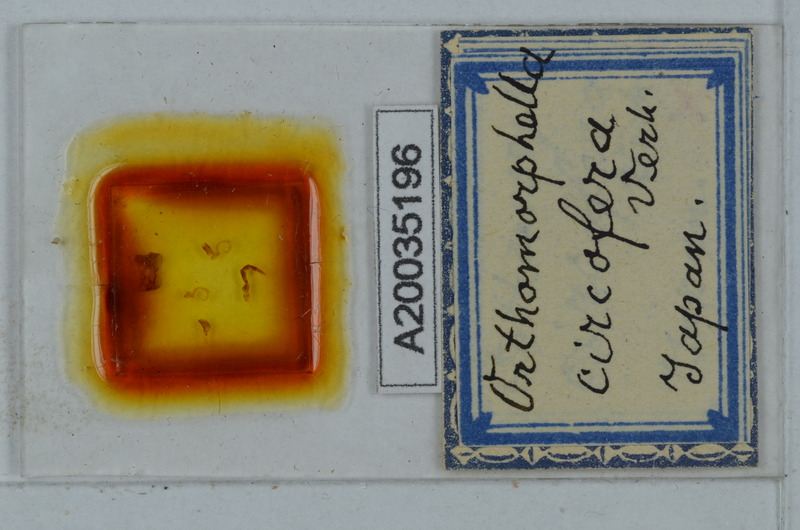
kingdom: Animalia
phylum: Arthropoda
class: Diplopoda
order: Polydesmida
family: Paradoxosomatidae
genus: Orthomorphella
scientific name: Orthomorphella circofera
